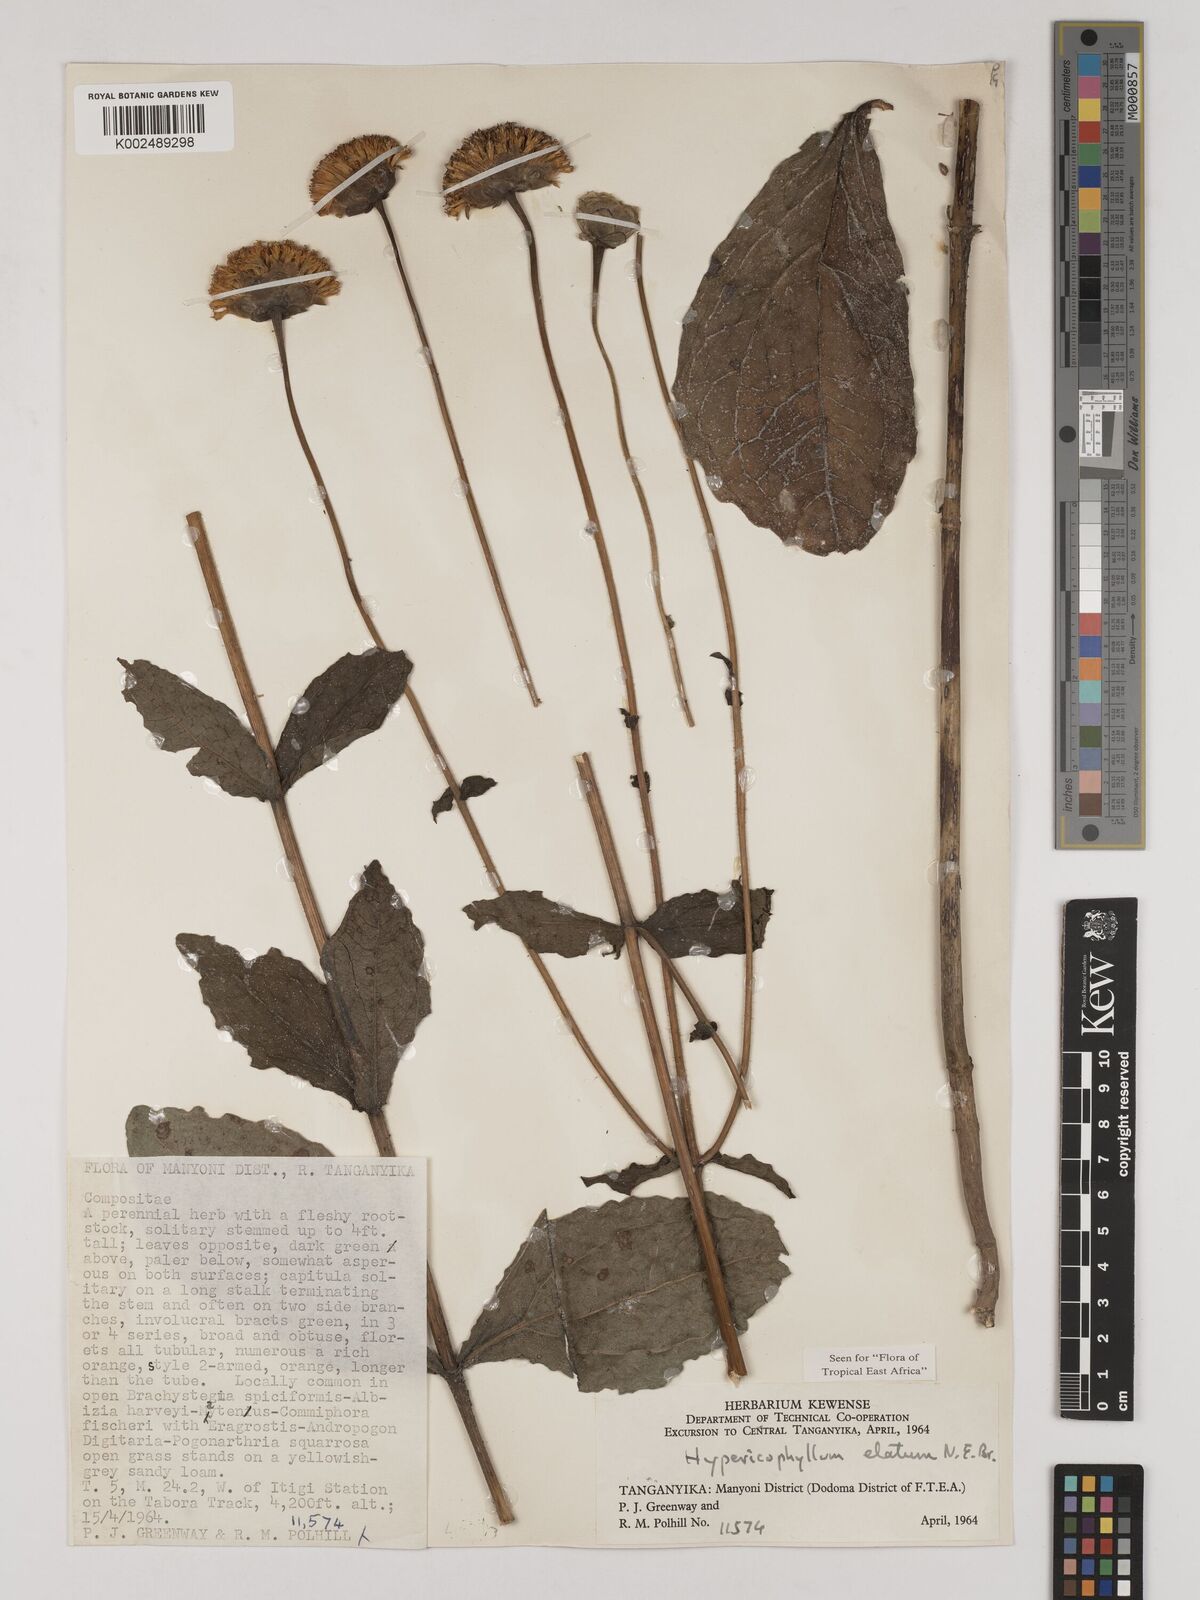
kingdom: Plantae
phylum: Tracheophyta
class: Magnoliopsida
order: Asterales
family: Asteraceae
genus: Hypericophyllum
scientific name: Hypericophyllum elatum
